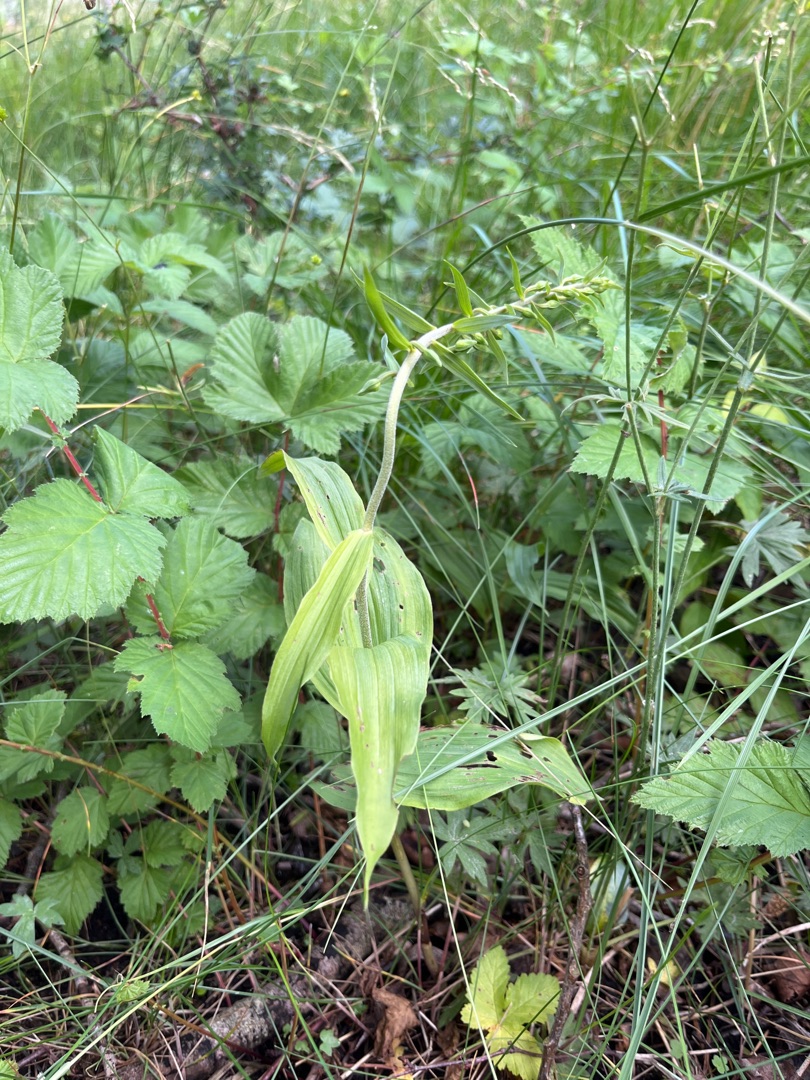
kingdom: Plantae
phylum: Tracheophyta
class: Liliopsida
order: Asparagales
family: Orchidaceae
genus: Epipactis
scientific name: Epipactis helleborine
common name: Skov-hullæbe
